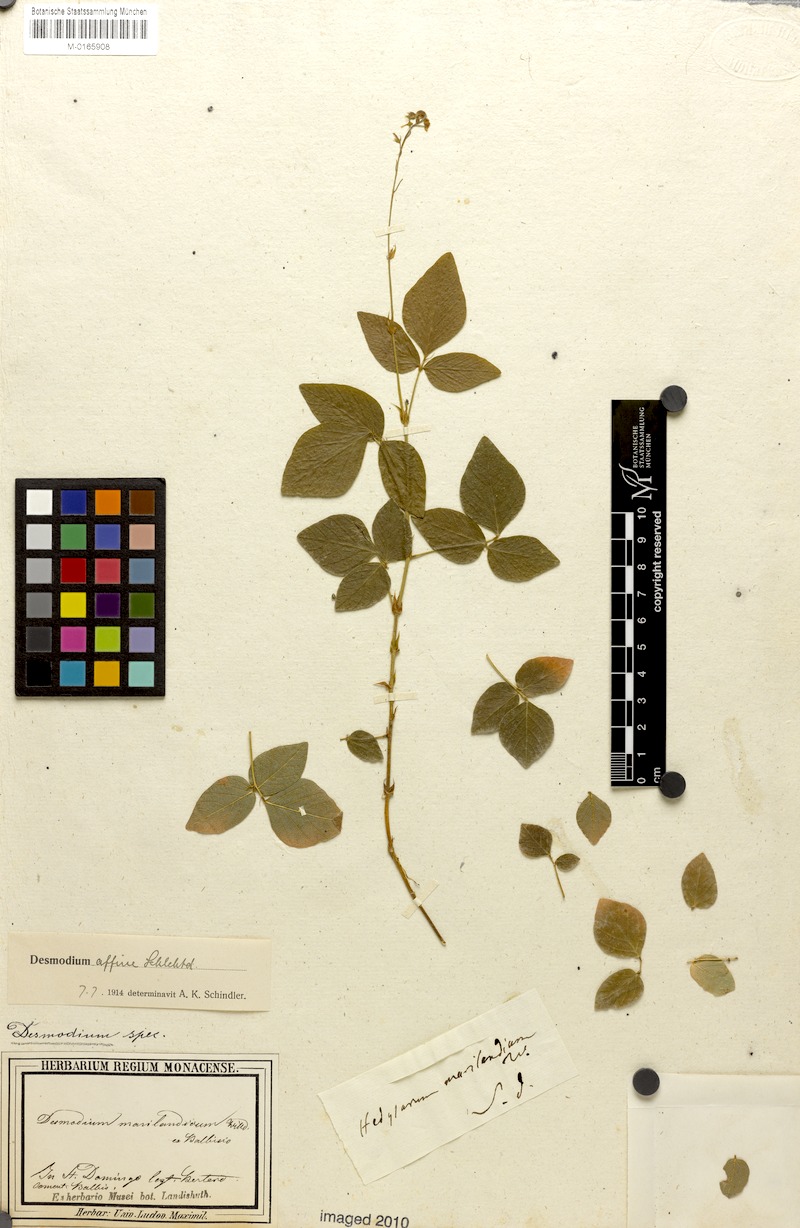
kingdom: Plantae
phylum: Tracheophyta
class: Magnoliopsida
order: Fabales
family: Fabaceae
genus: Desmodium
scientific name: Desmodium affine
